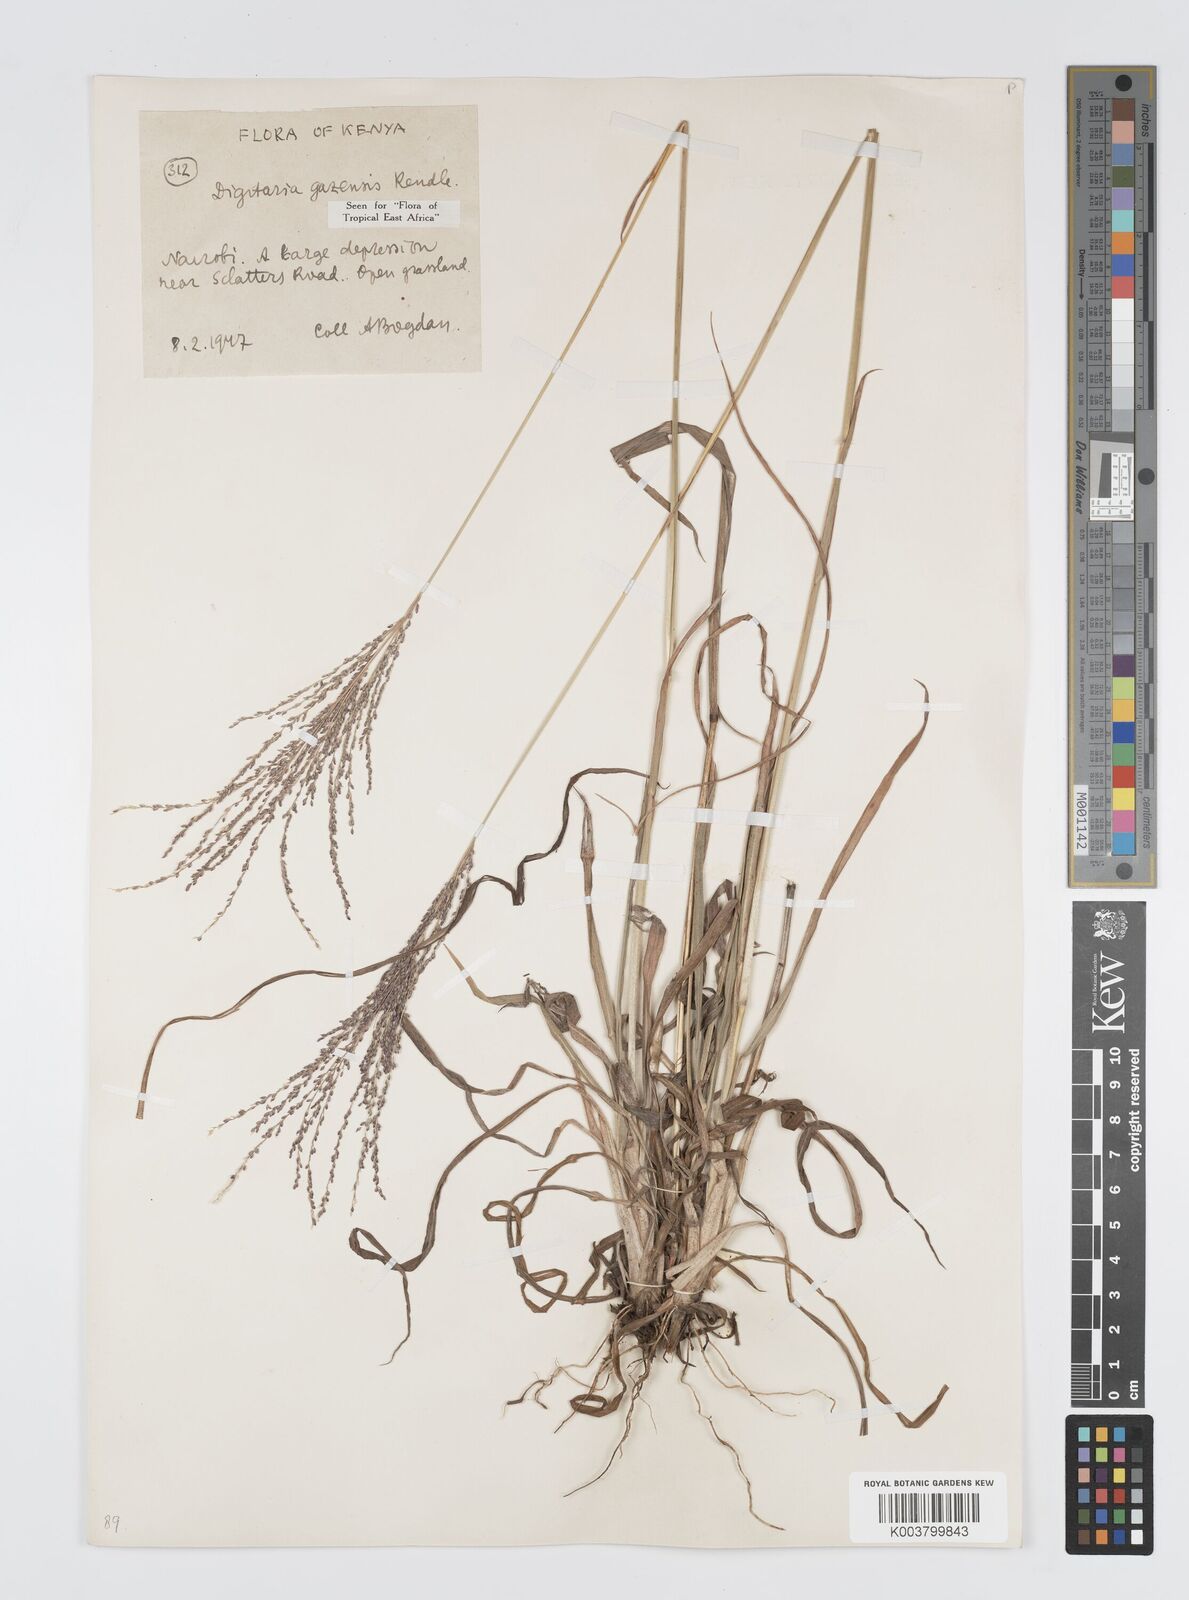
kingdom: Plantae
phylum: Tracheophyta
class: Liliopsida
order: Poales
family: Poaceae
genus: Digitaria
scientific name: Digitaria gazensis
